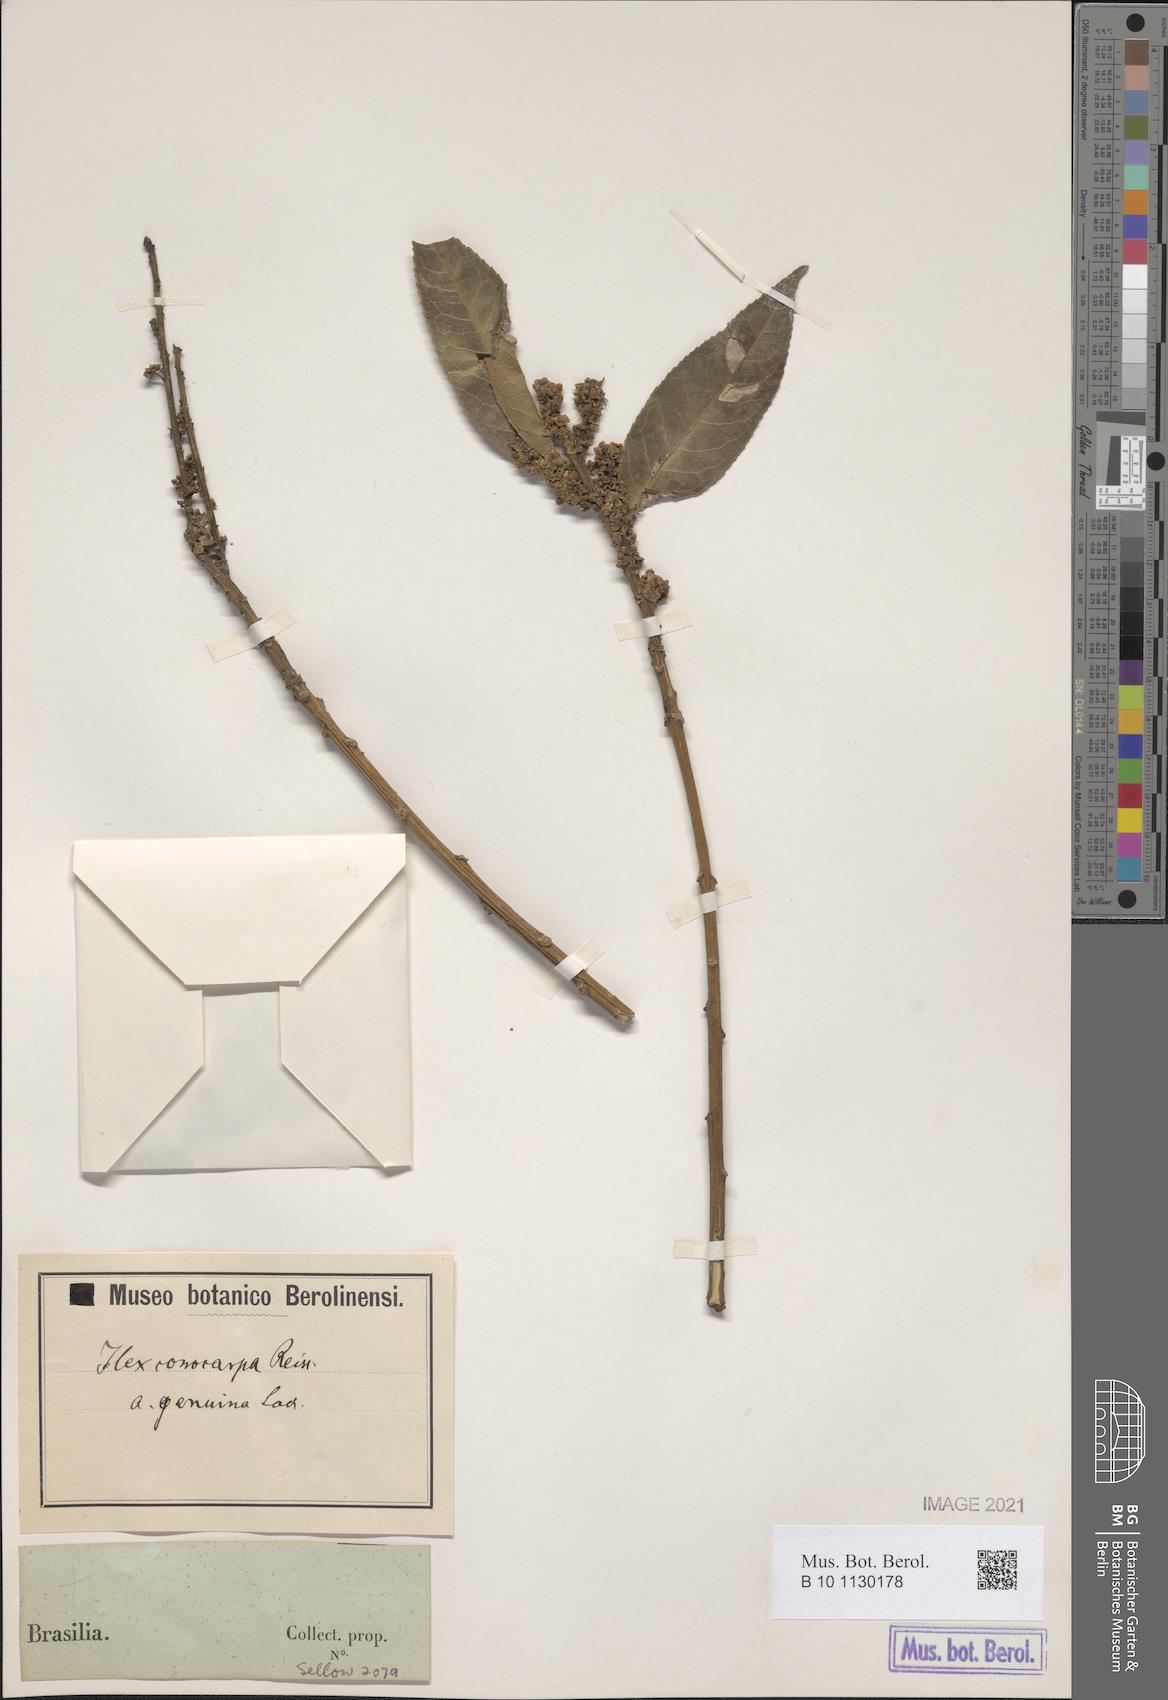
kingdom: Plantae
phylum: Tracheophyta
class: Magnoliopsida
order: Aquifoliales
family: Aquifoliaceae
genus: Ilex
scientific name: Ilex conocarpa
